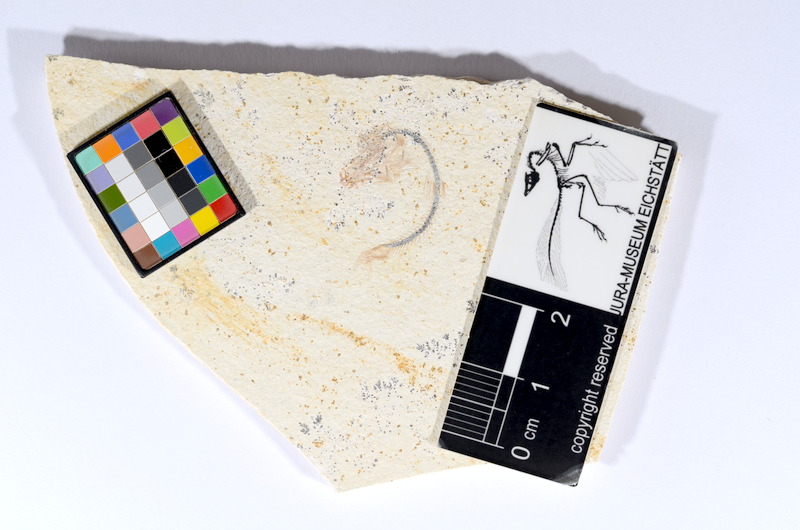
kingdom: Animalia
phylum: Chordata
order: Salmoniformes
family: Orthogonikleithridae
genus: Orthogonikleithrus
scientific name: Orthogonikleithrus hoelli
